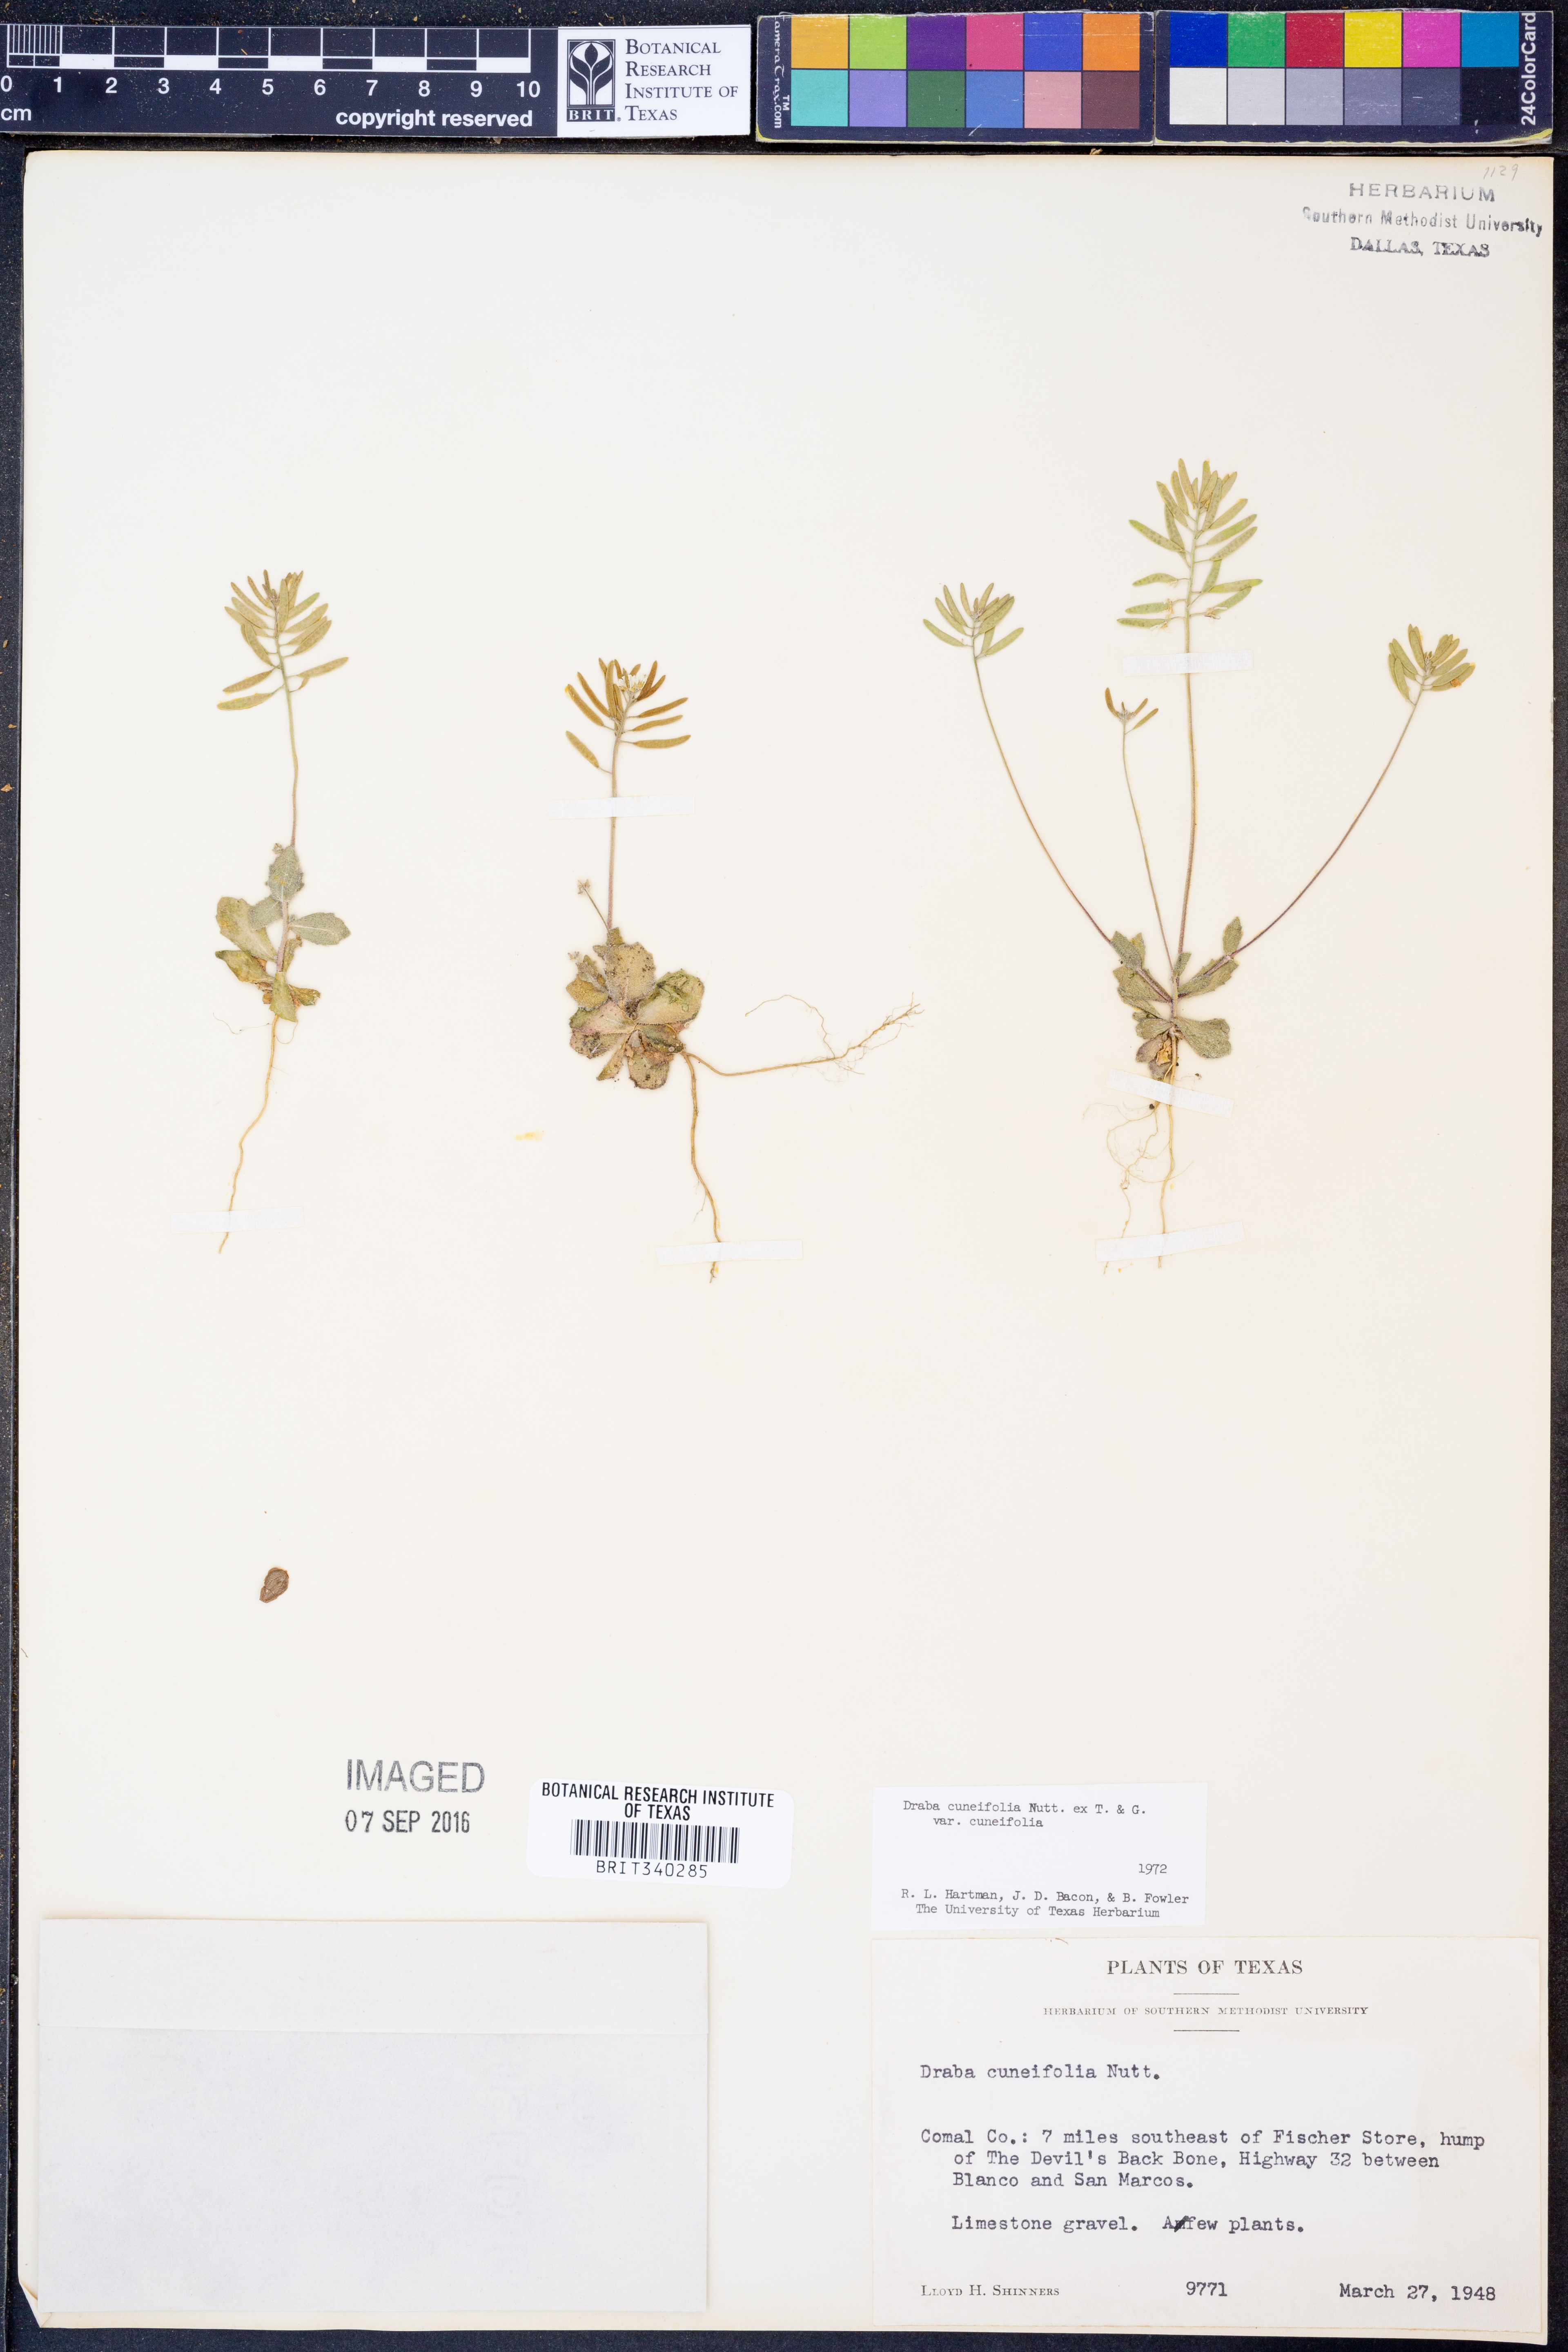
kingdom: Plantae
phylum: Tracheophyta
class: Magnoliopsida
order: Brassicales
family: Brassicaceae
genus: Tomostima
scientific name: Tomostima cuneifolia
